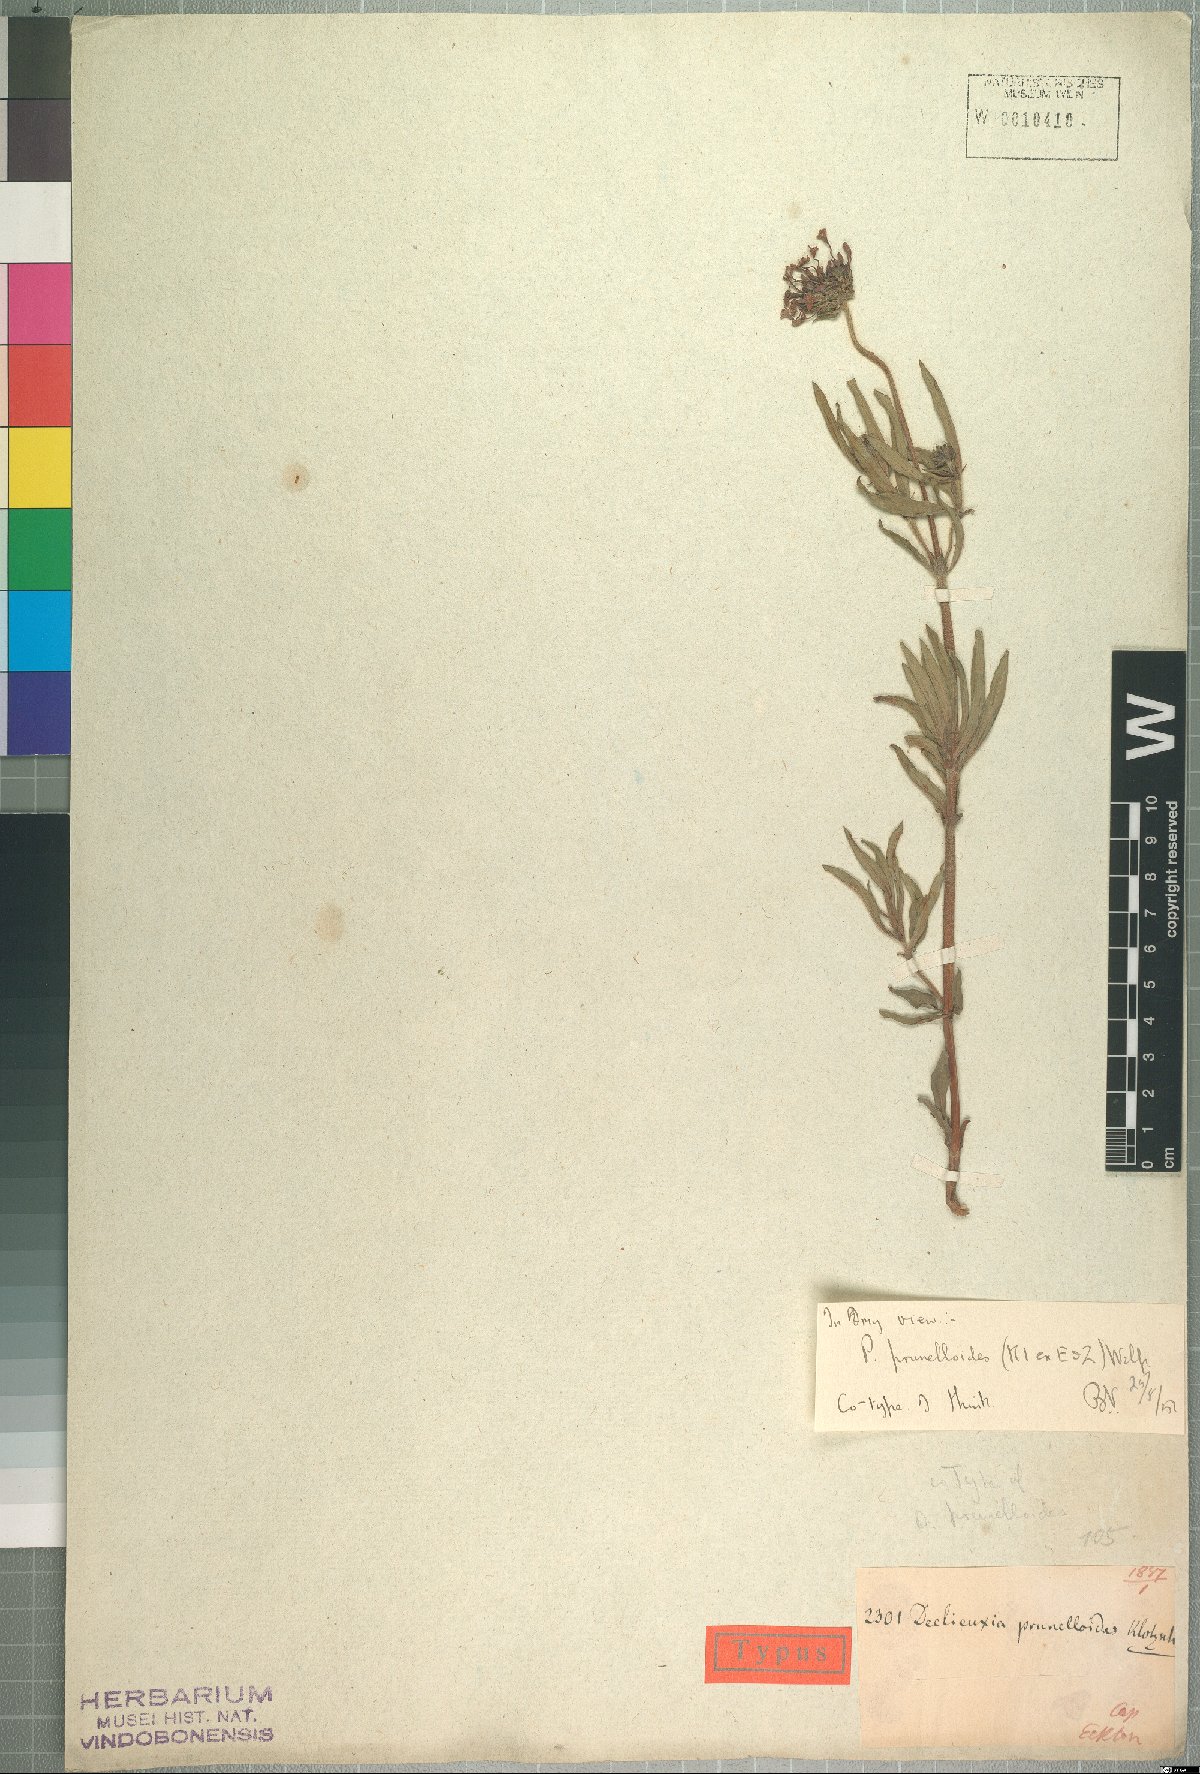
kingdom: Plantae
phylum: Tracheophyta
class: Magnoliopsida
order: Gentianales
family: Rubiaceae
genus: Pentanisia
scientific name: Pentanisia prunelloides
